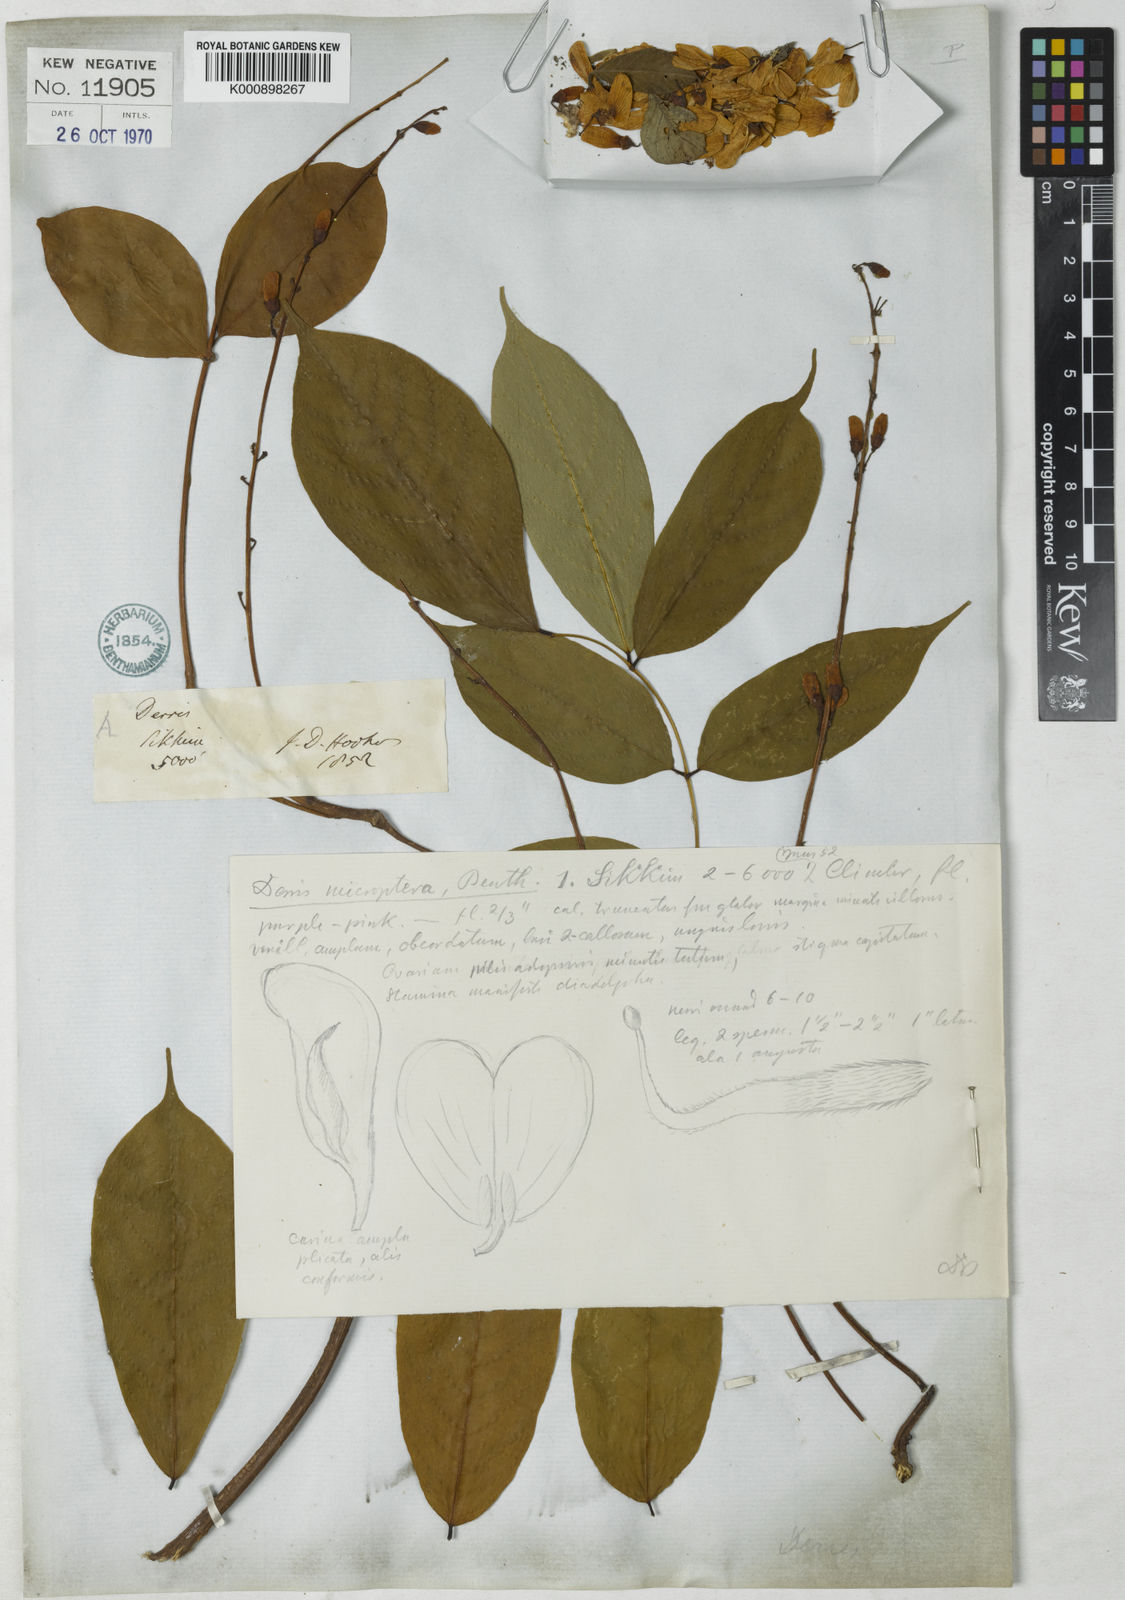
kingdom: Plantae
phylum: Tracheophyta
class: Magnoliopsida
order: Fabales
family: Fabaceae
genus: Derris
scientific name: Derris monticola
